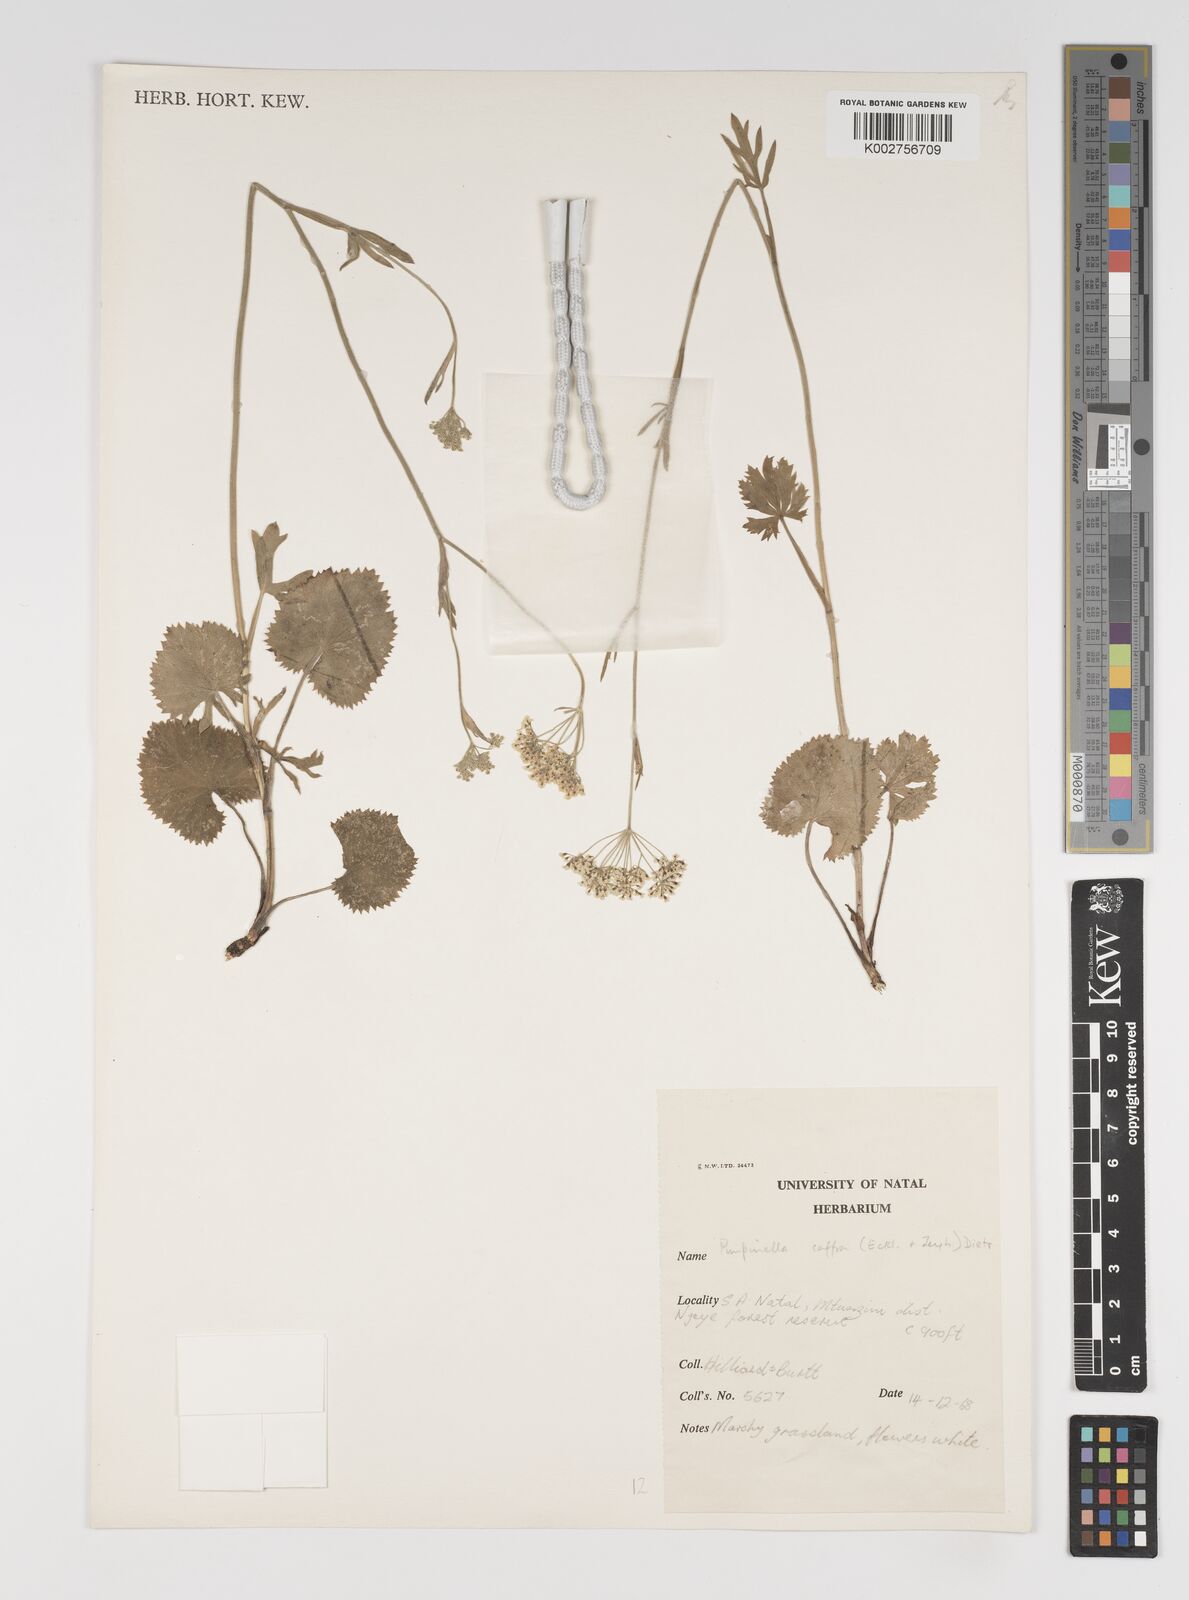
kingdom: Plantae
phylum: Tracheophyta
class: Magnoliopsida
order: Apiales
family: Apiaceae
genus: Pimpinella
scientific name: Pimpinella
